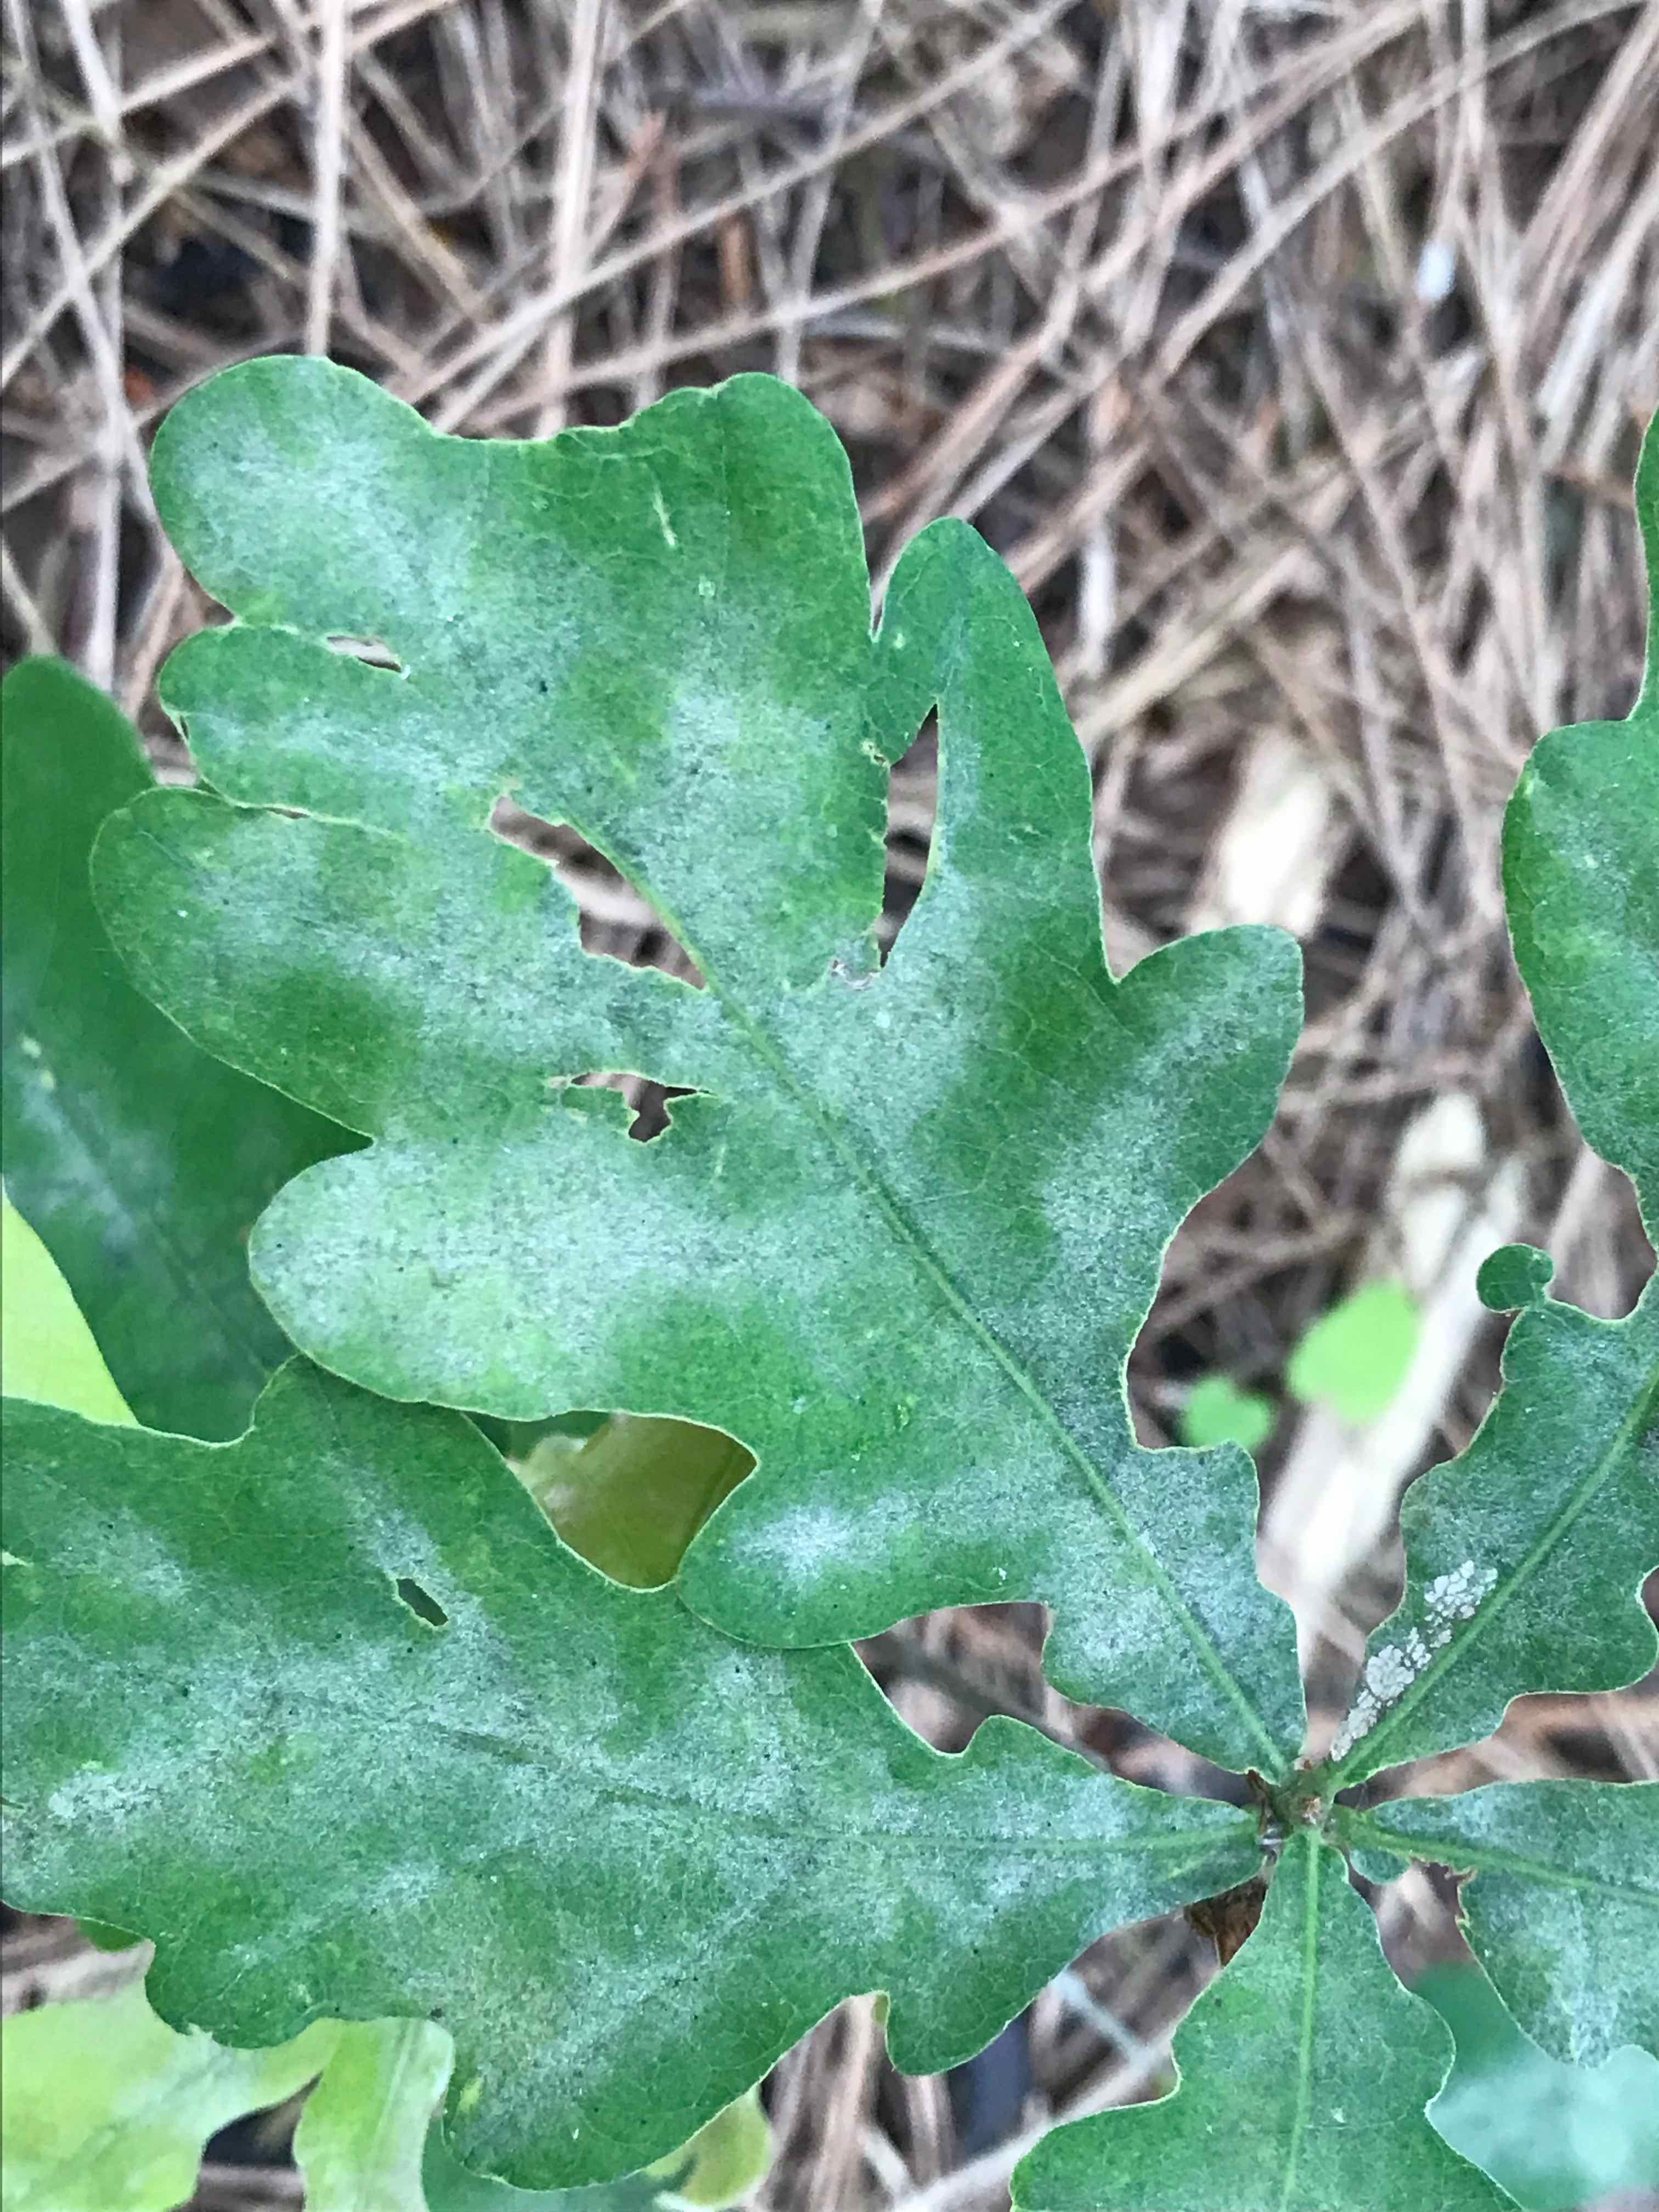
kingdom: Fungi
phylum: Ascomycota
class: Leotiomycetes
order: Helotiales
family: Erysiphaceae
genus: Erysiphe
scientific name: Erysiphe alphitoides
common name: ege-meldug
